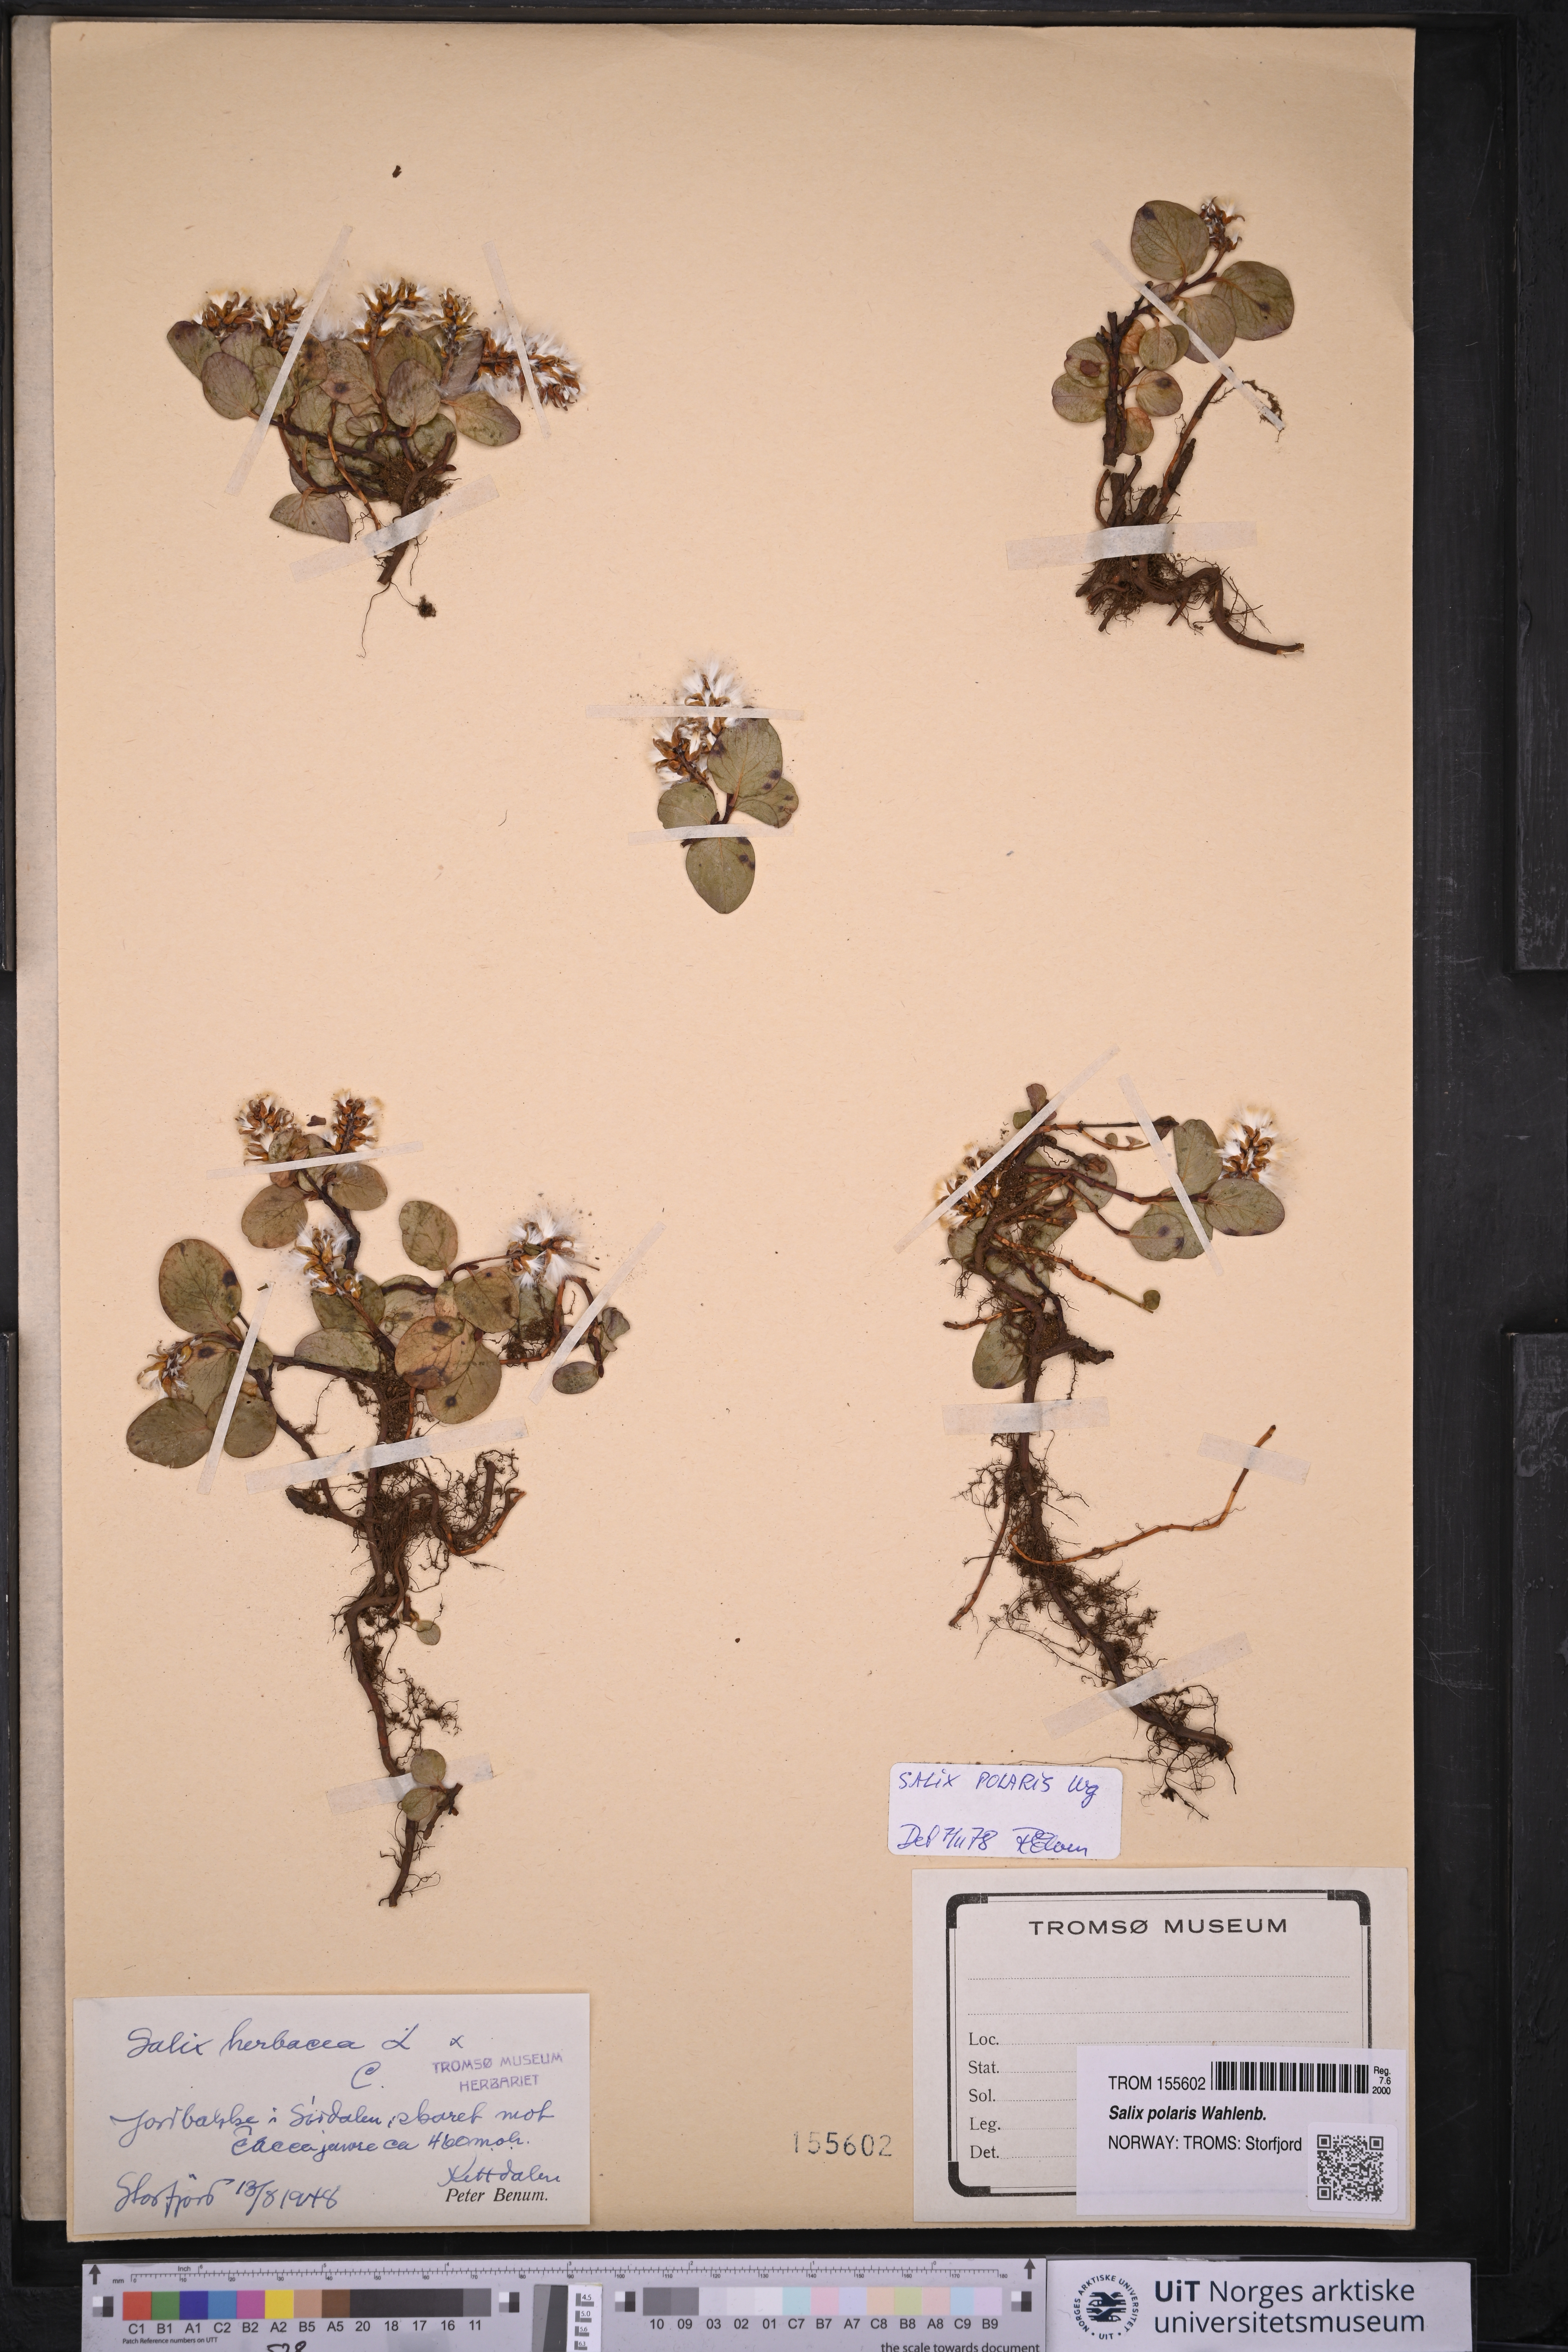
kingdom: Plantae
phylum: Tracheophyta
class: Magnoliopsida
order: Malpighiales
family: Salicaceae
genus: Salix
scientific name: Salix polaris
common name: Polar willow
